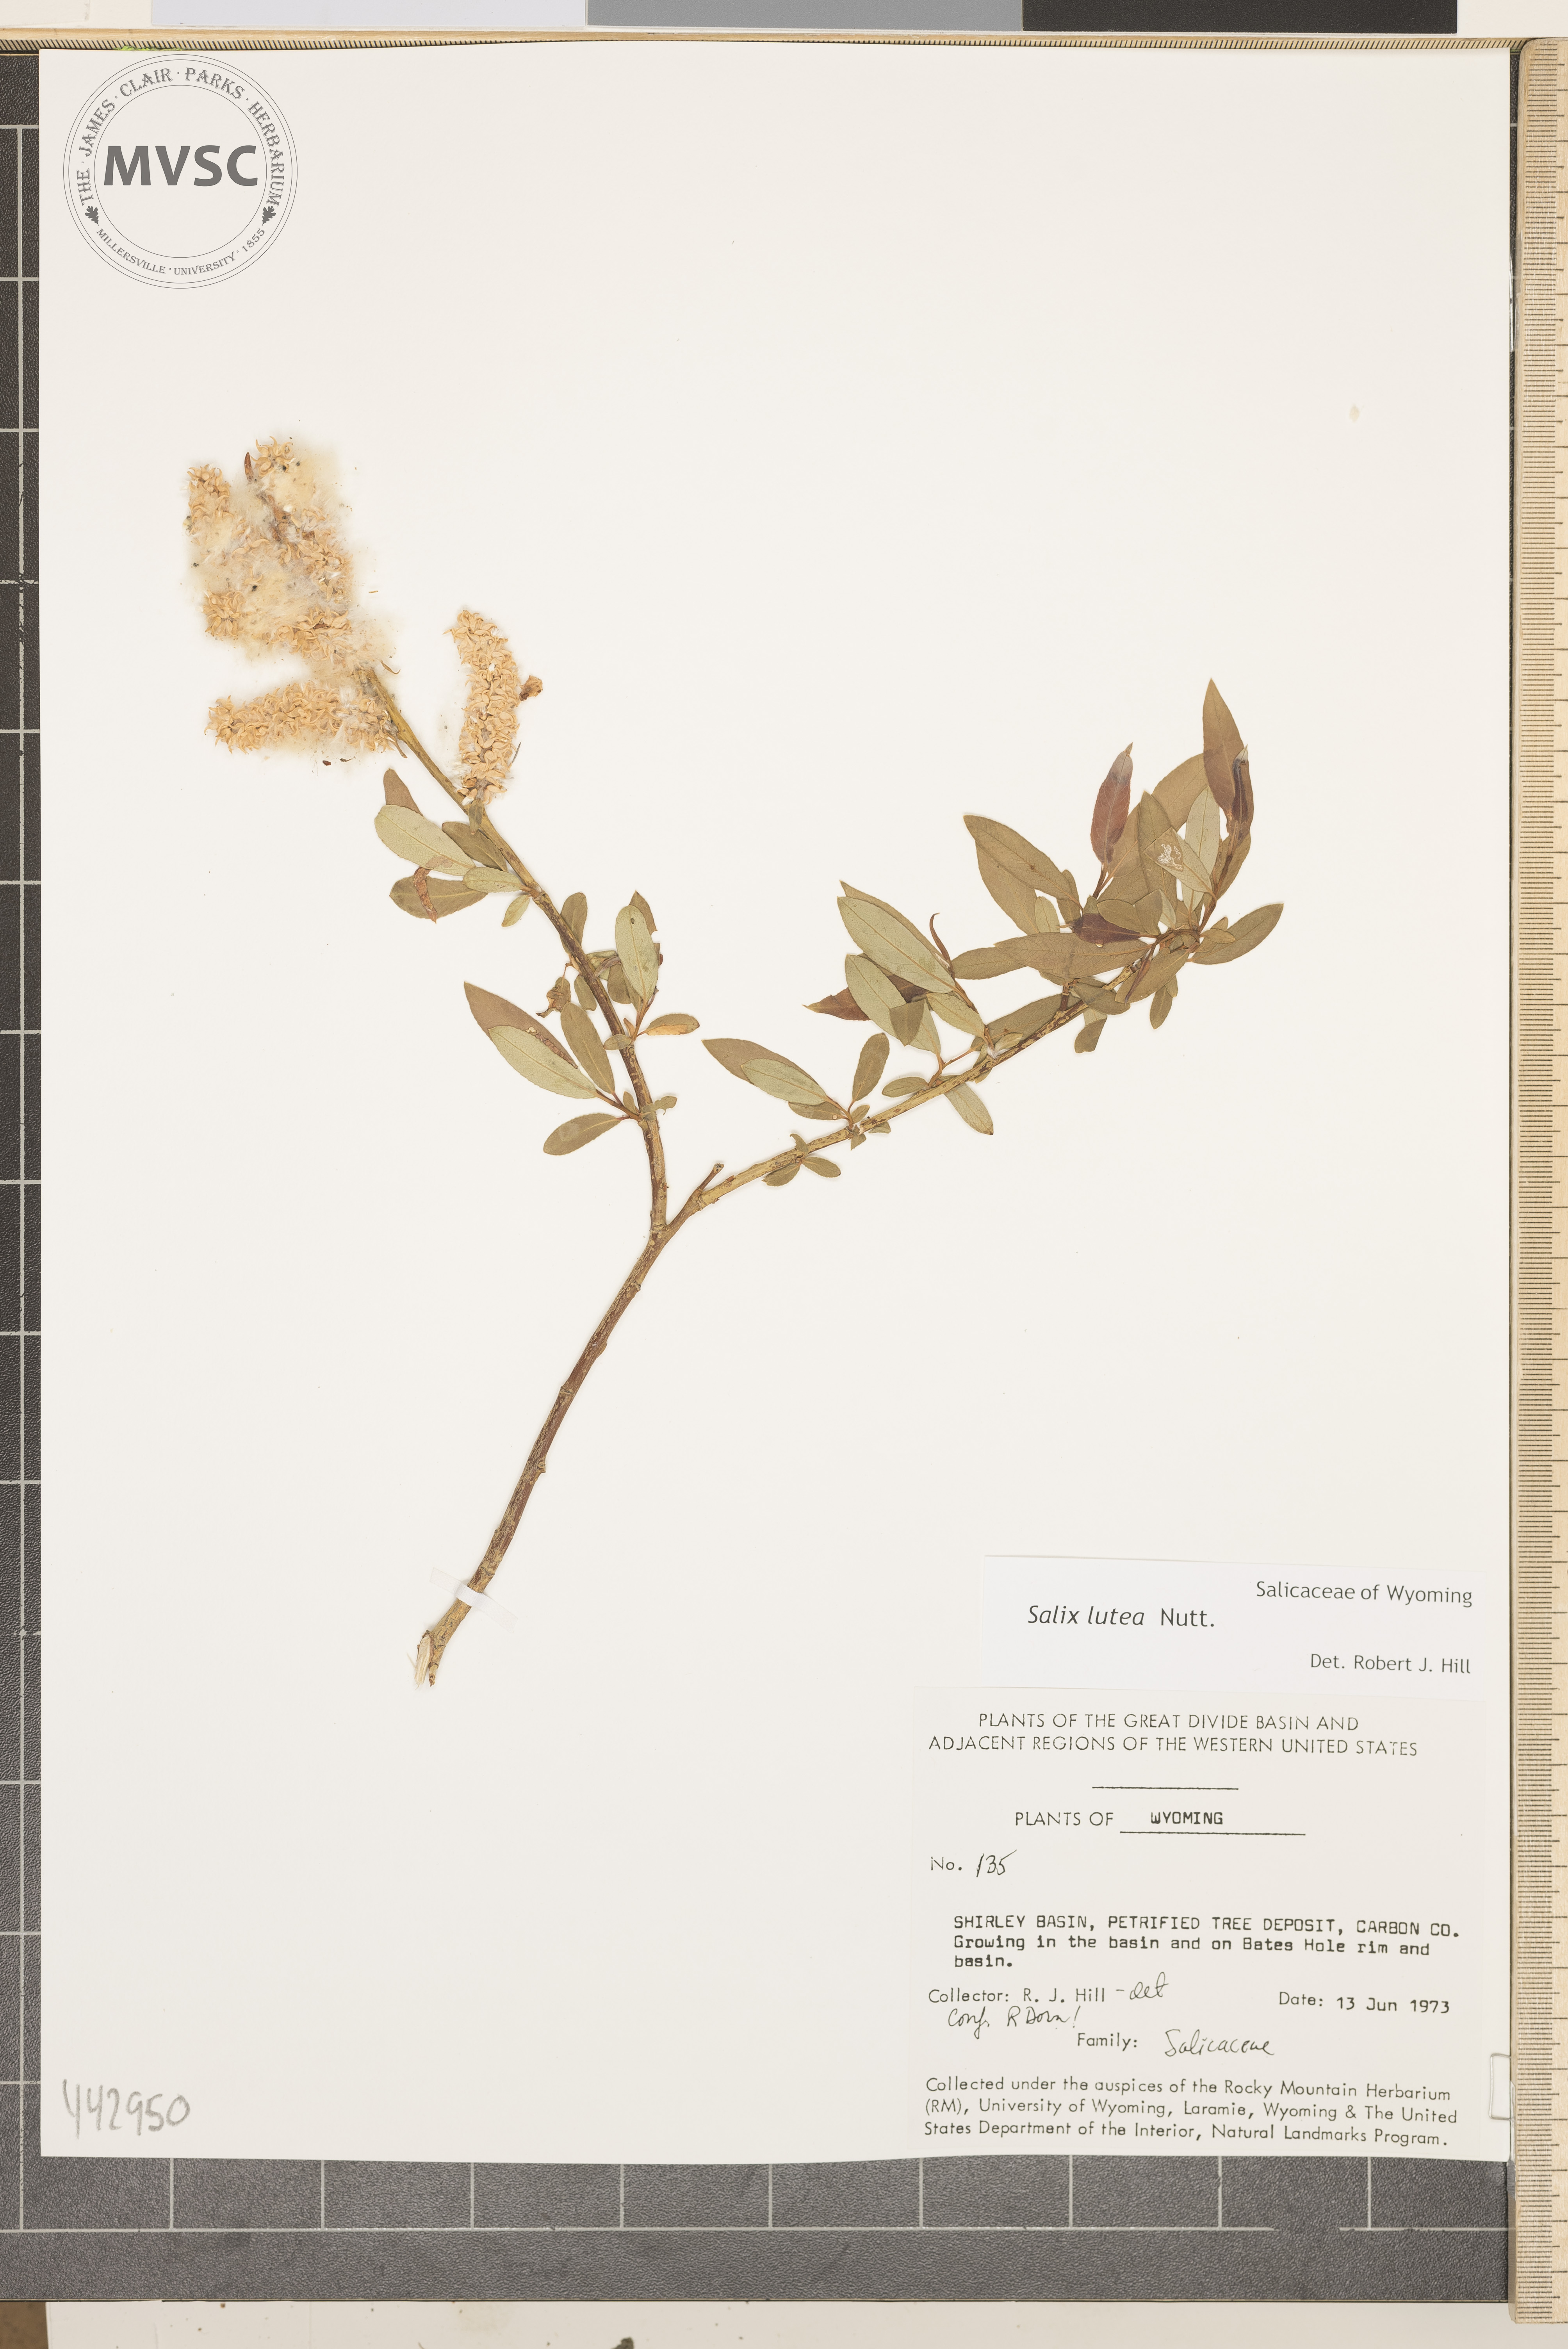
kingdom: Plantae
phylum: Tracheophyta
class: Magnoliopsida
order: Malpighiales
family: Salicaceae
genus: Salix
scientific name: Salix lutea
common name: Yellow willow
